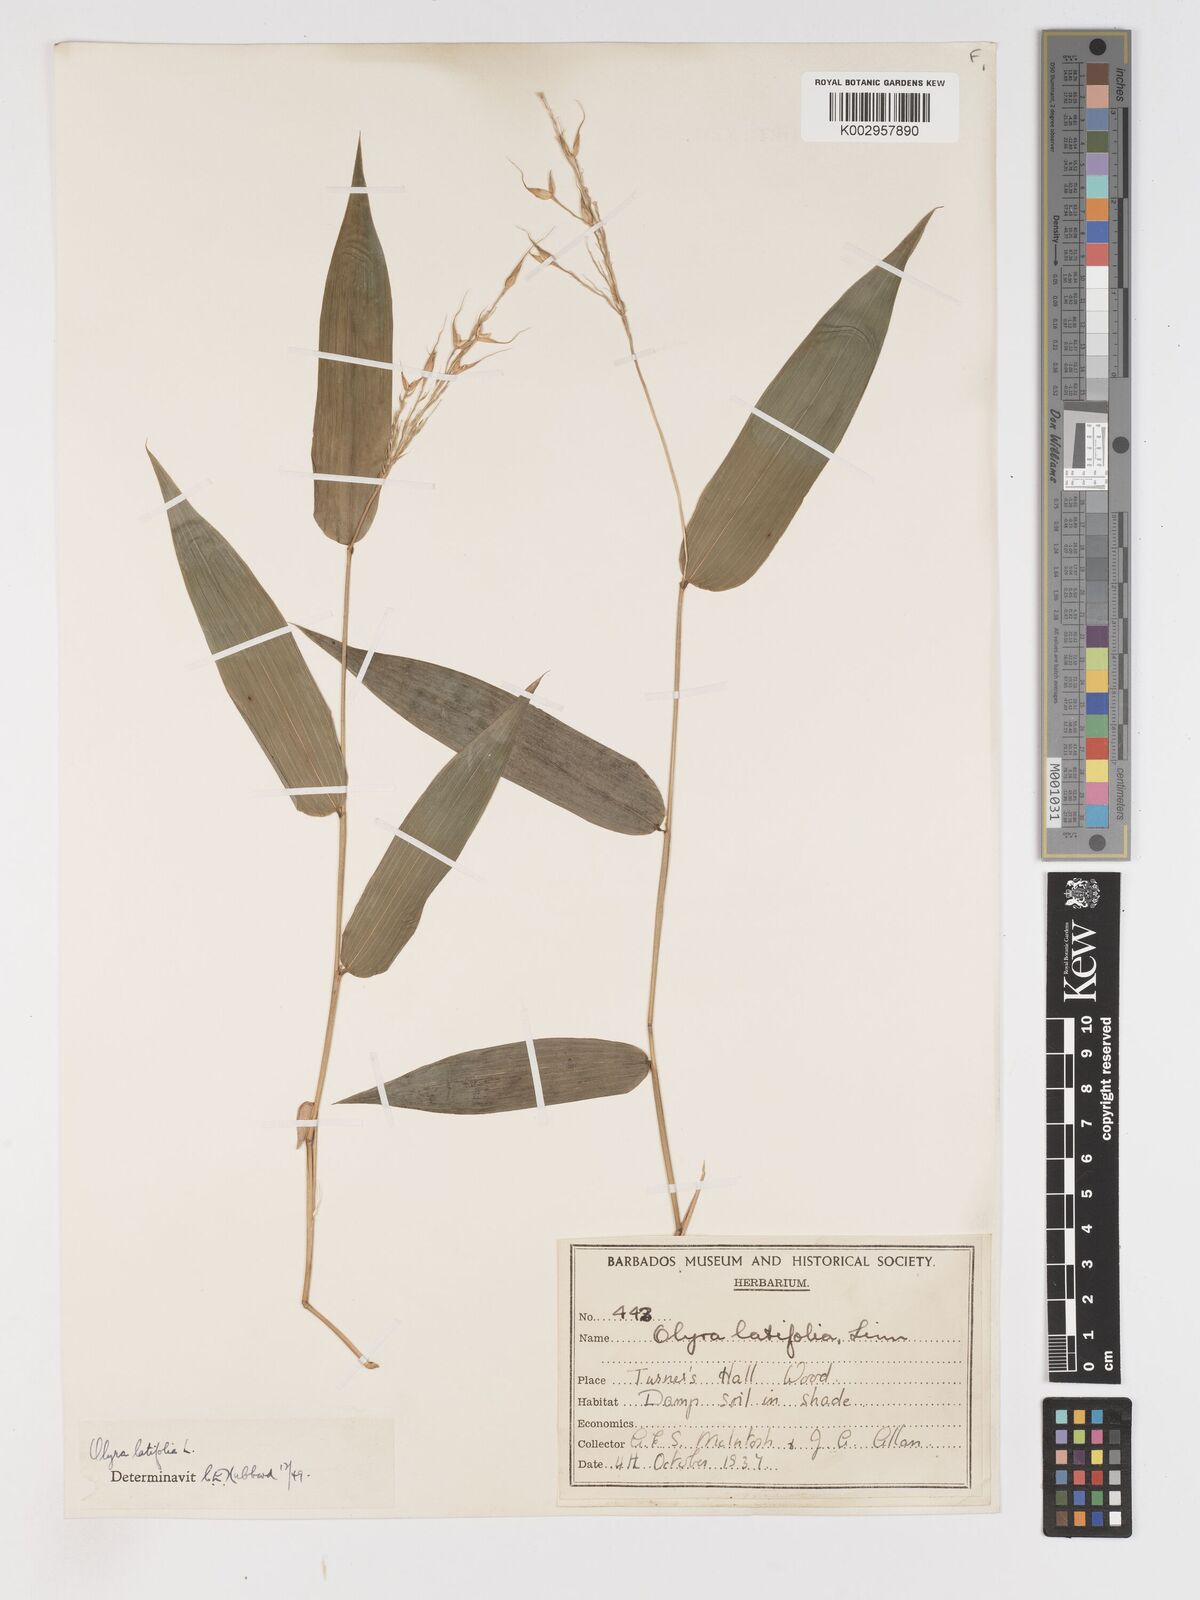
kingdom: Plantae
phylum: Tracheophyta
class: Liliopsida
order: Poales
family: Poaceae
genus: Olyra
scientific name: Olyra latifolia
